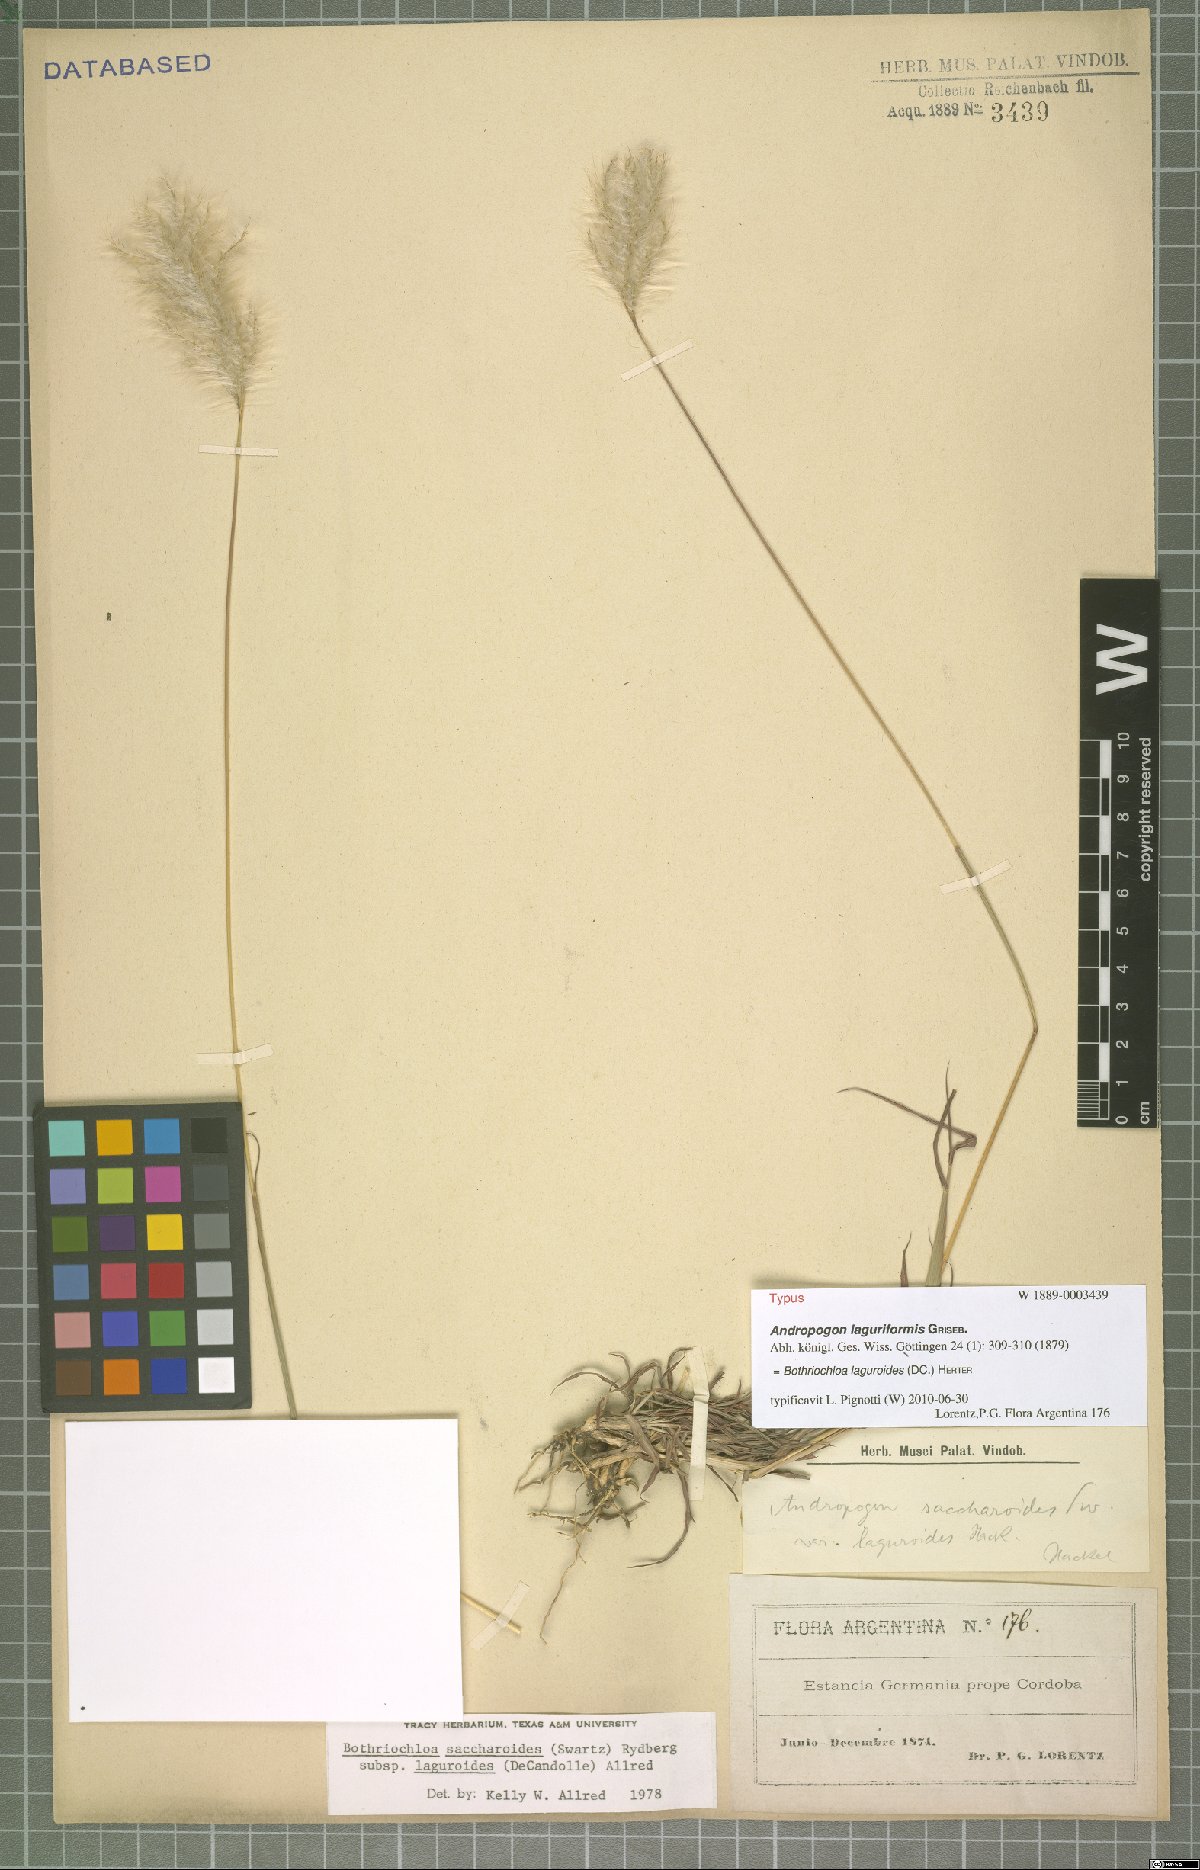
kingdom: Plantae
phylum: Tracheophyta
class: Liliopsida
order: Poales
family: Poaceae
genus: Bothriochloa
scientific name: Bothriochloa laguroides
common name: Silver bluestem
